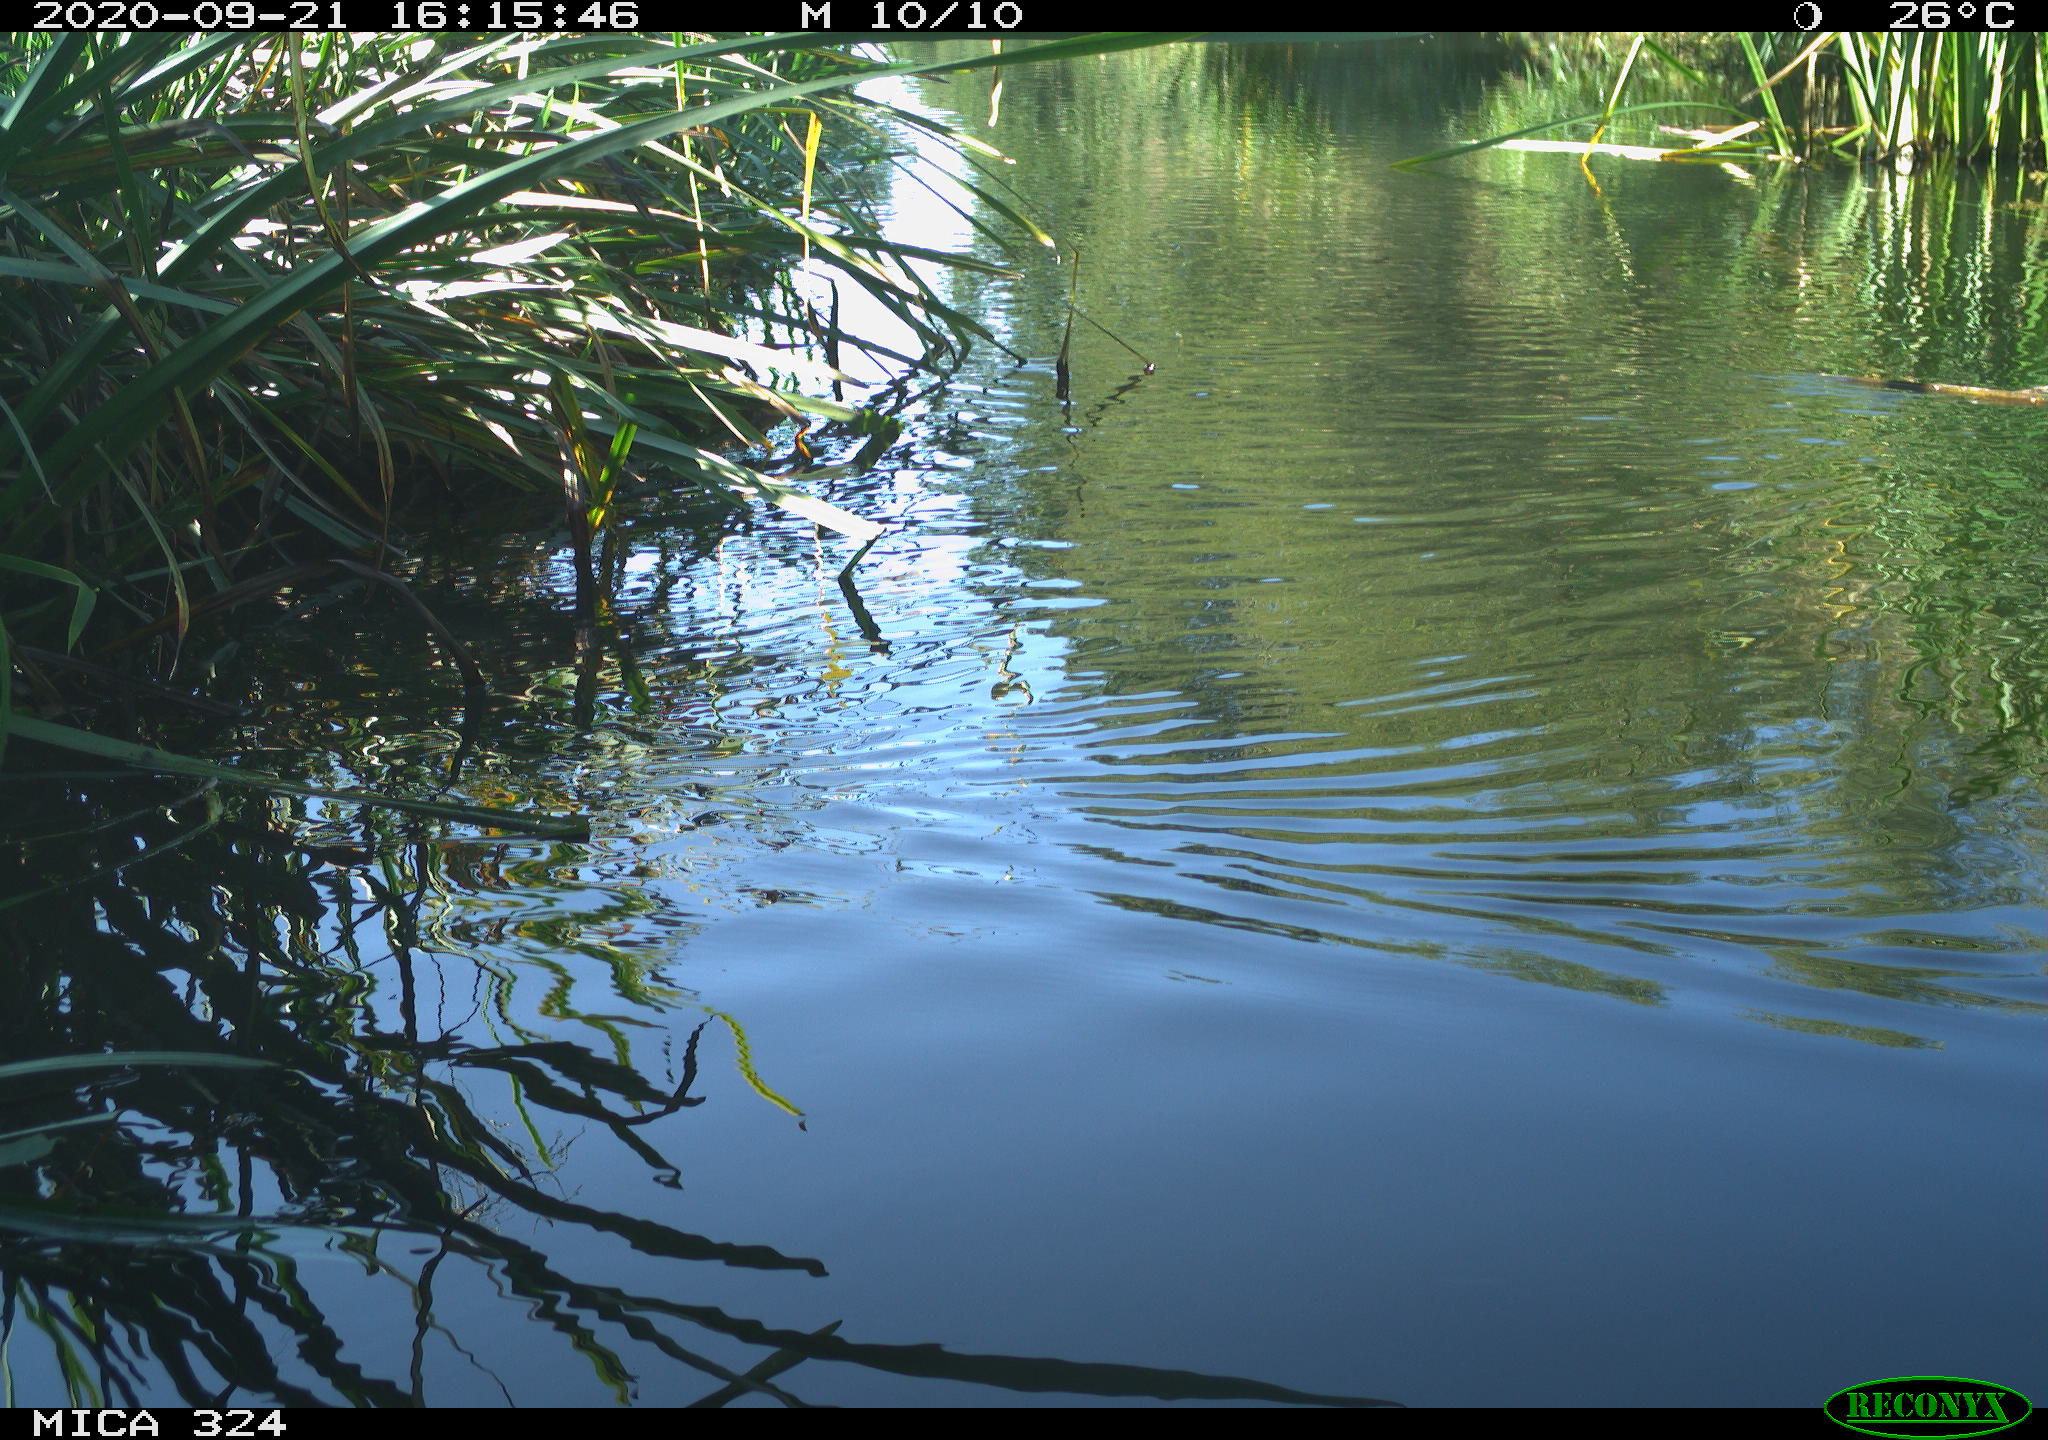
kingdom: Animalia
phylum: Chordata
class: Aves
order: Gruiformes
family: Rallidae
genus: Gallinula
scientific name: Gallinula chloropus
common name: Common moorhen
